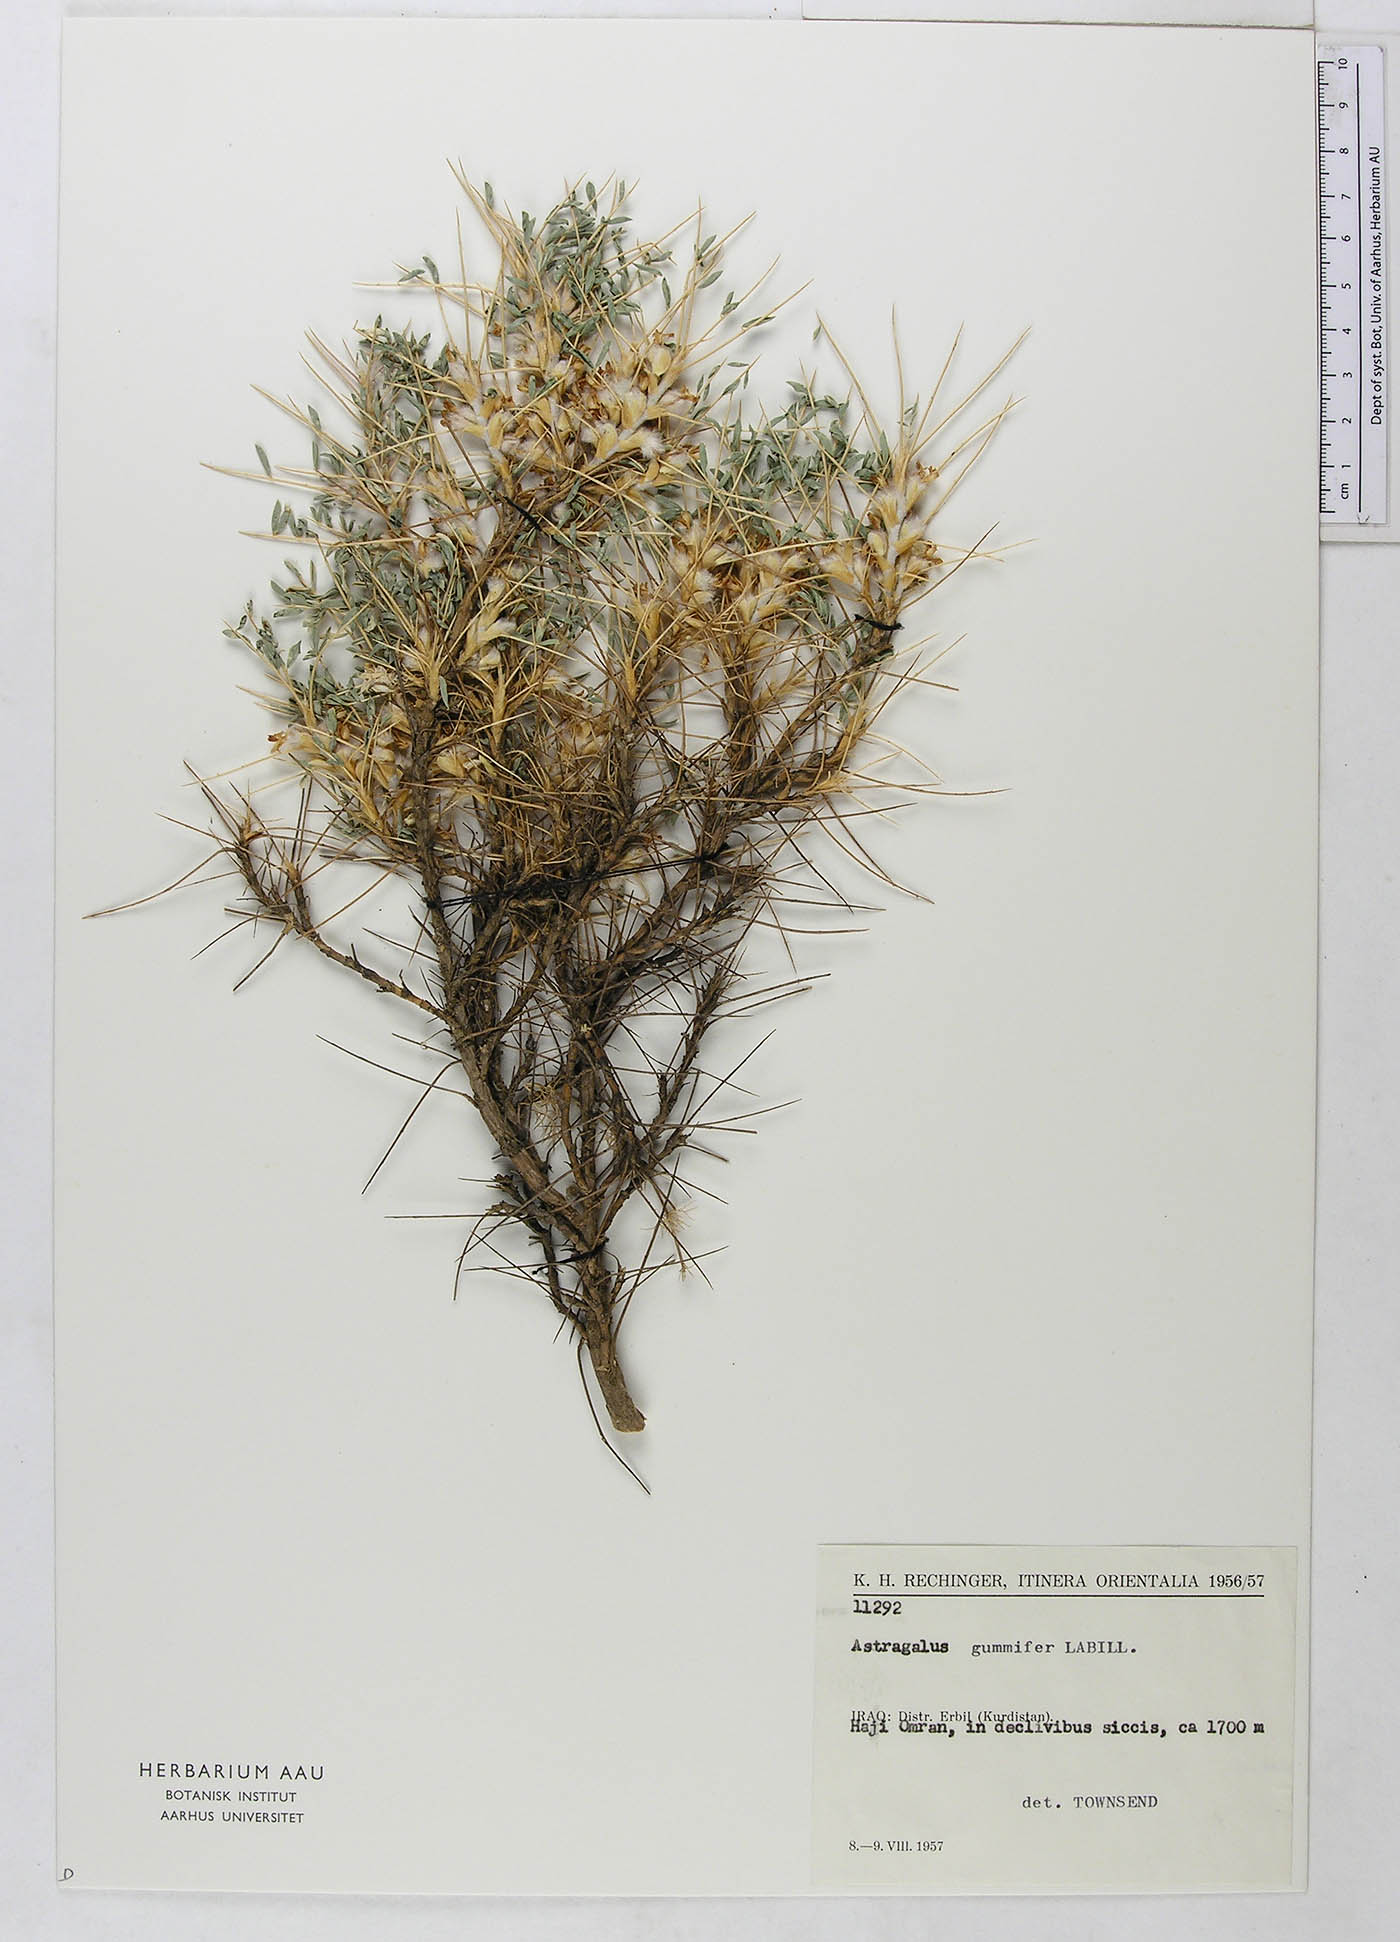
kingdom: Plantae
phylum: Tracheophyta
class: Magnoliopsida
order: Fabales
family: Fabaceae
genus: Astragalus
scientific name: Astragalus gummifer
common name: Tragacanth
